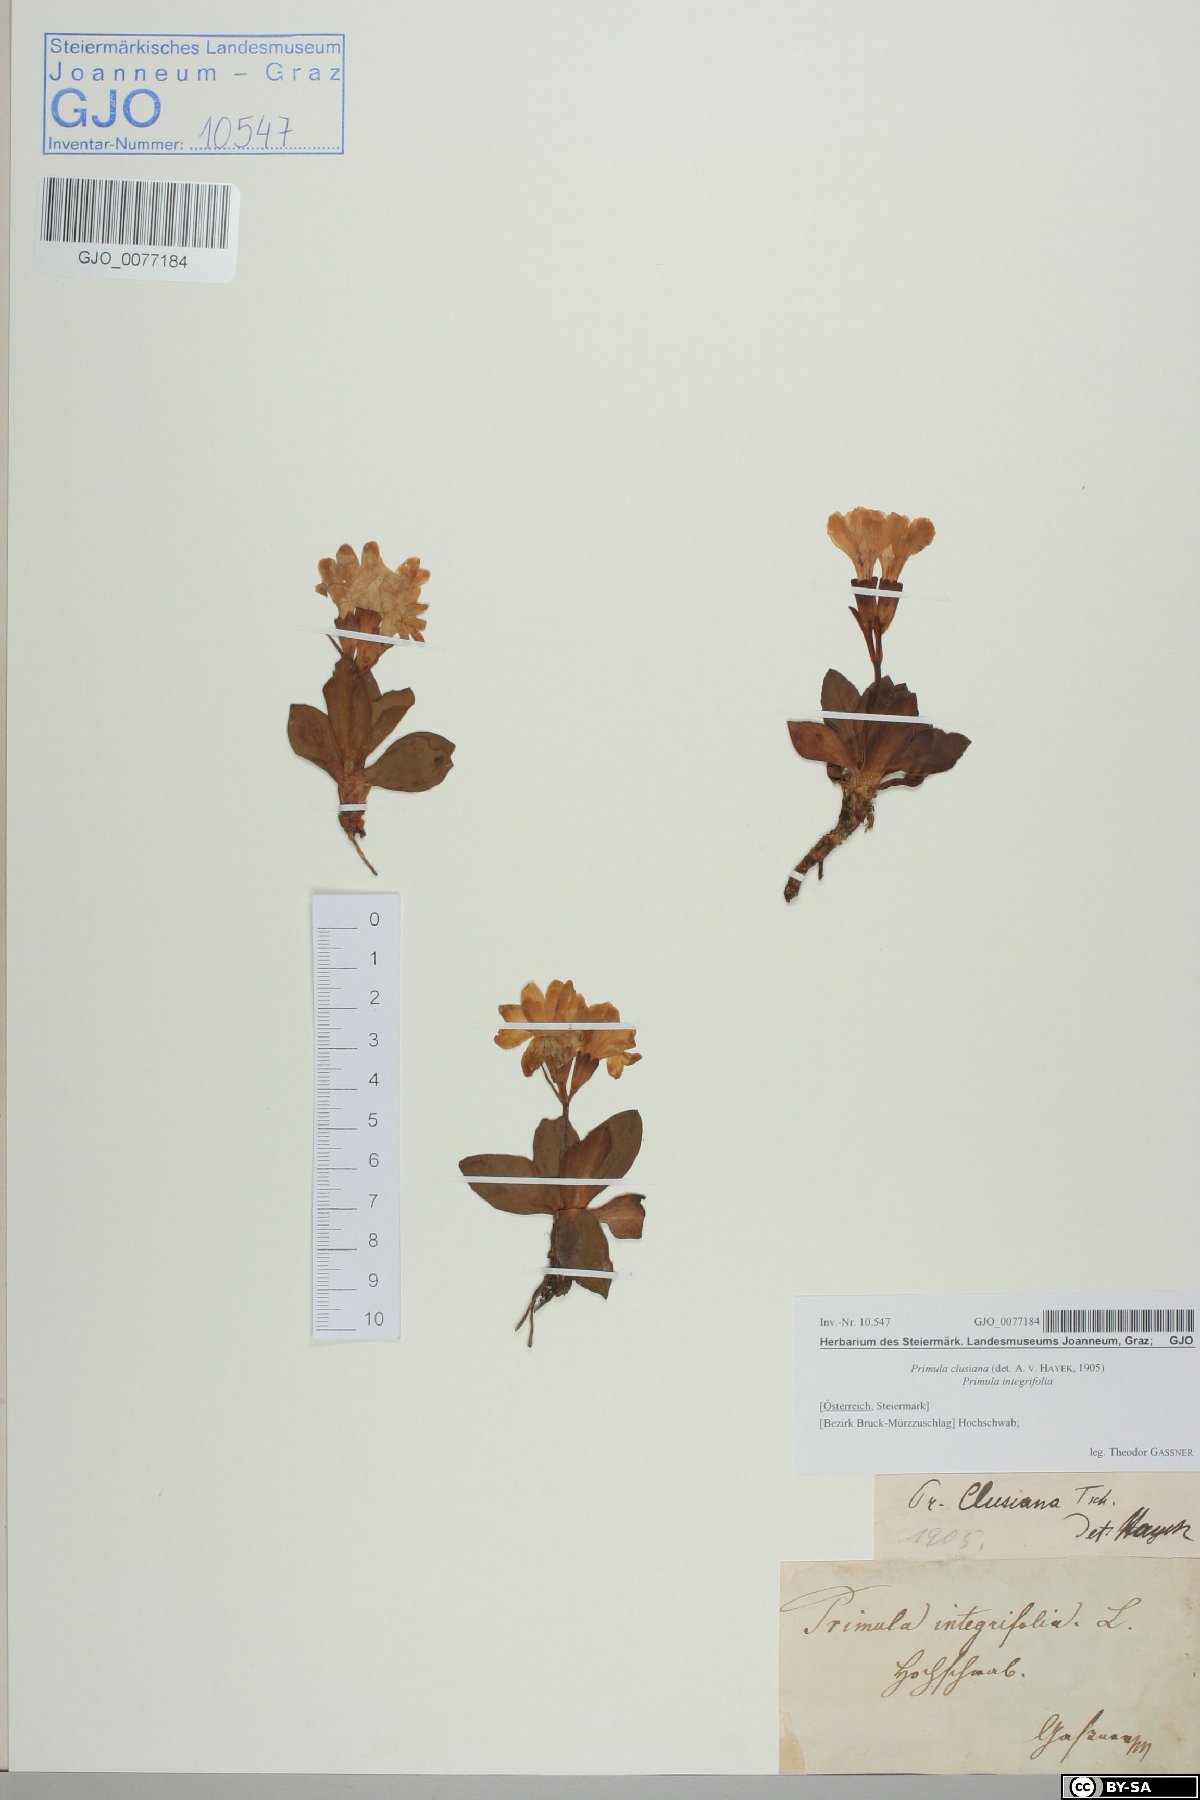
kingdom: Plantae
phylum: Tracheophyta
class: Magnoliopsida
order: Ericales
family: Primulaceae
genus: Primula
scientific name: Primula clusiana
